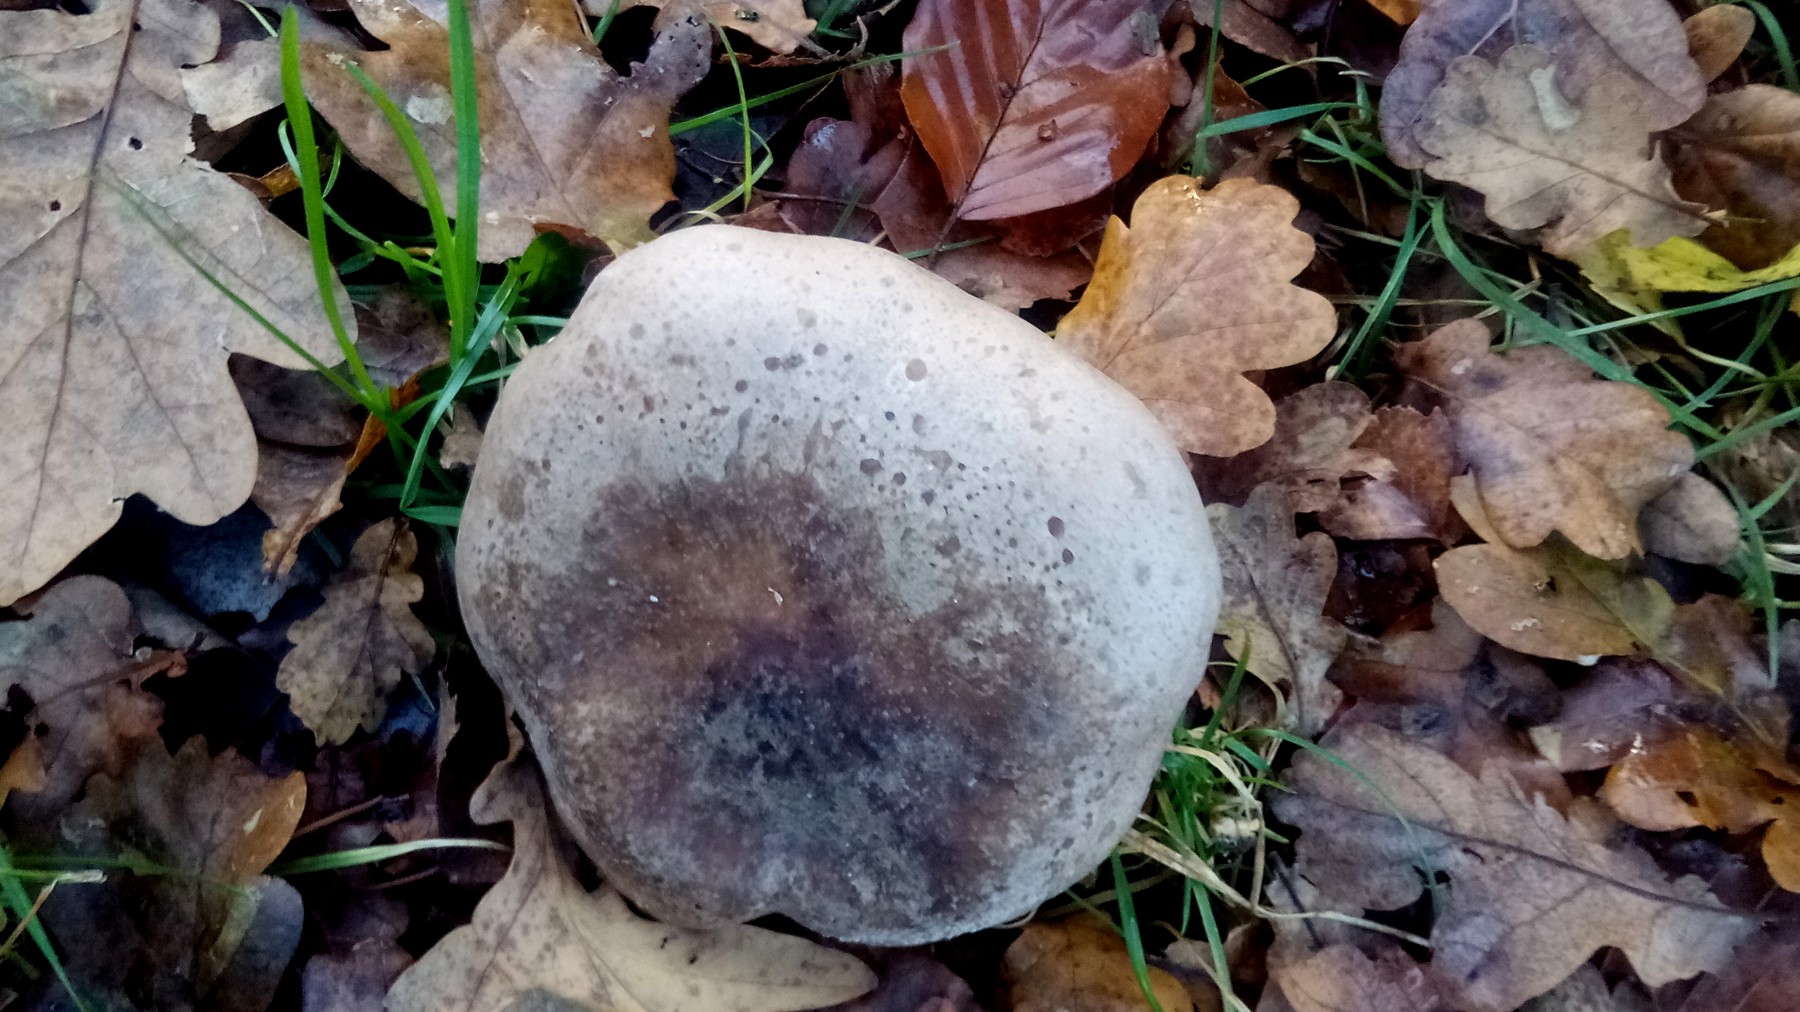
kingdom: Fungi
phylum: Basidiomycota
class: Agaricomycetes
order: Agaricales
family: Tricholomataceae
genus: Clitocybe
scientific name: Clitocybe nebularis
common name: tåge-tragthat
